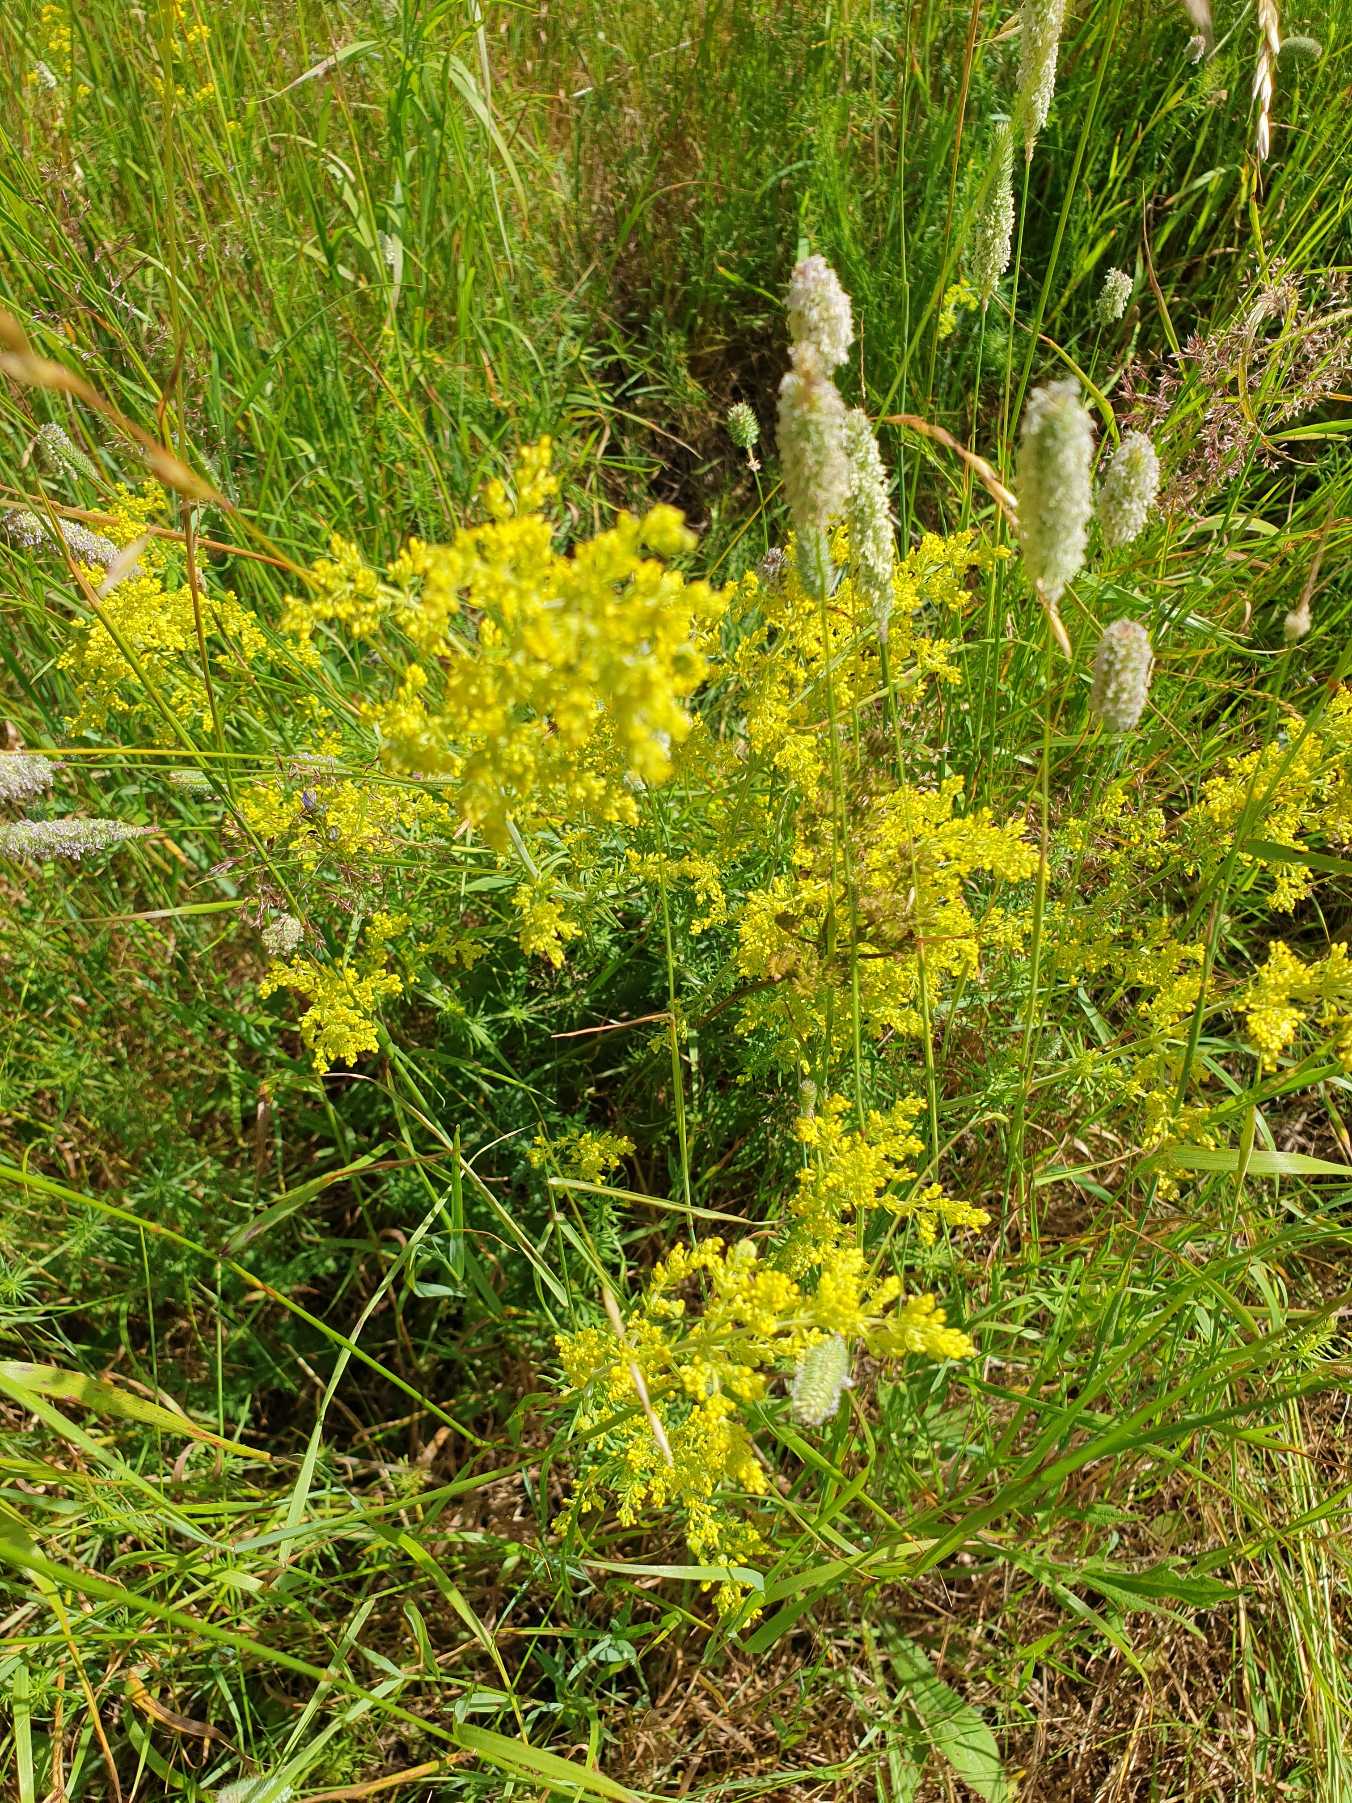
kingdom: Plantae
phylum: Tracheophyta
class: Magnoliopsida
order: Gentianales
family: Rubiaceae
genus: Galium
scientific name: Galium verum
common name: Gul snerre
